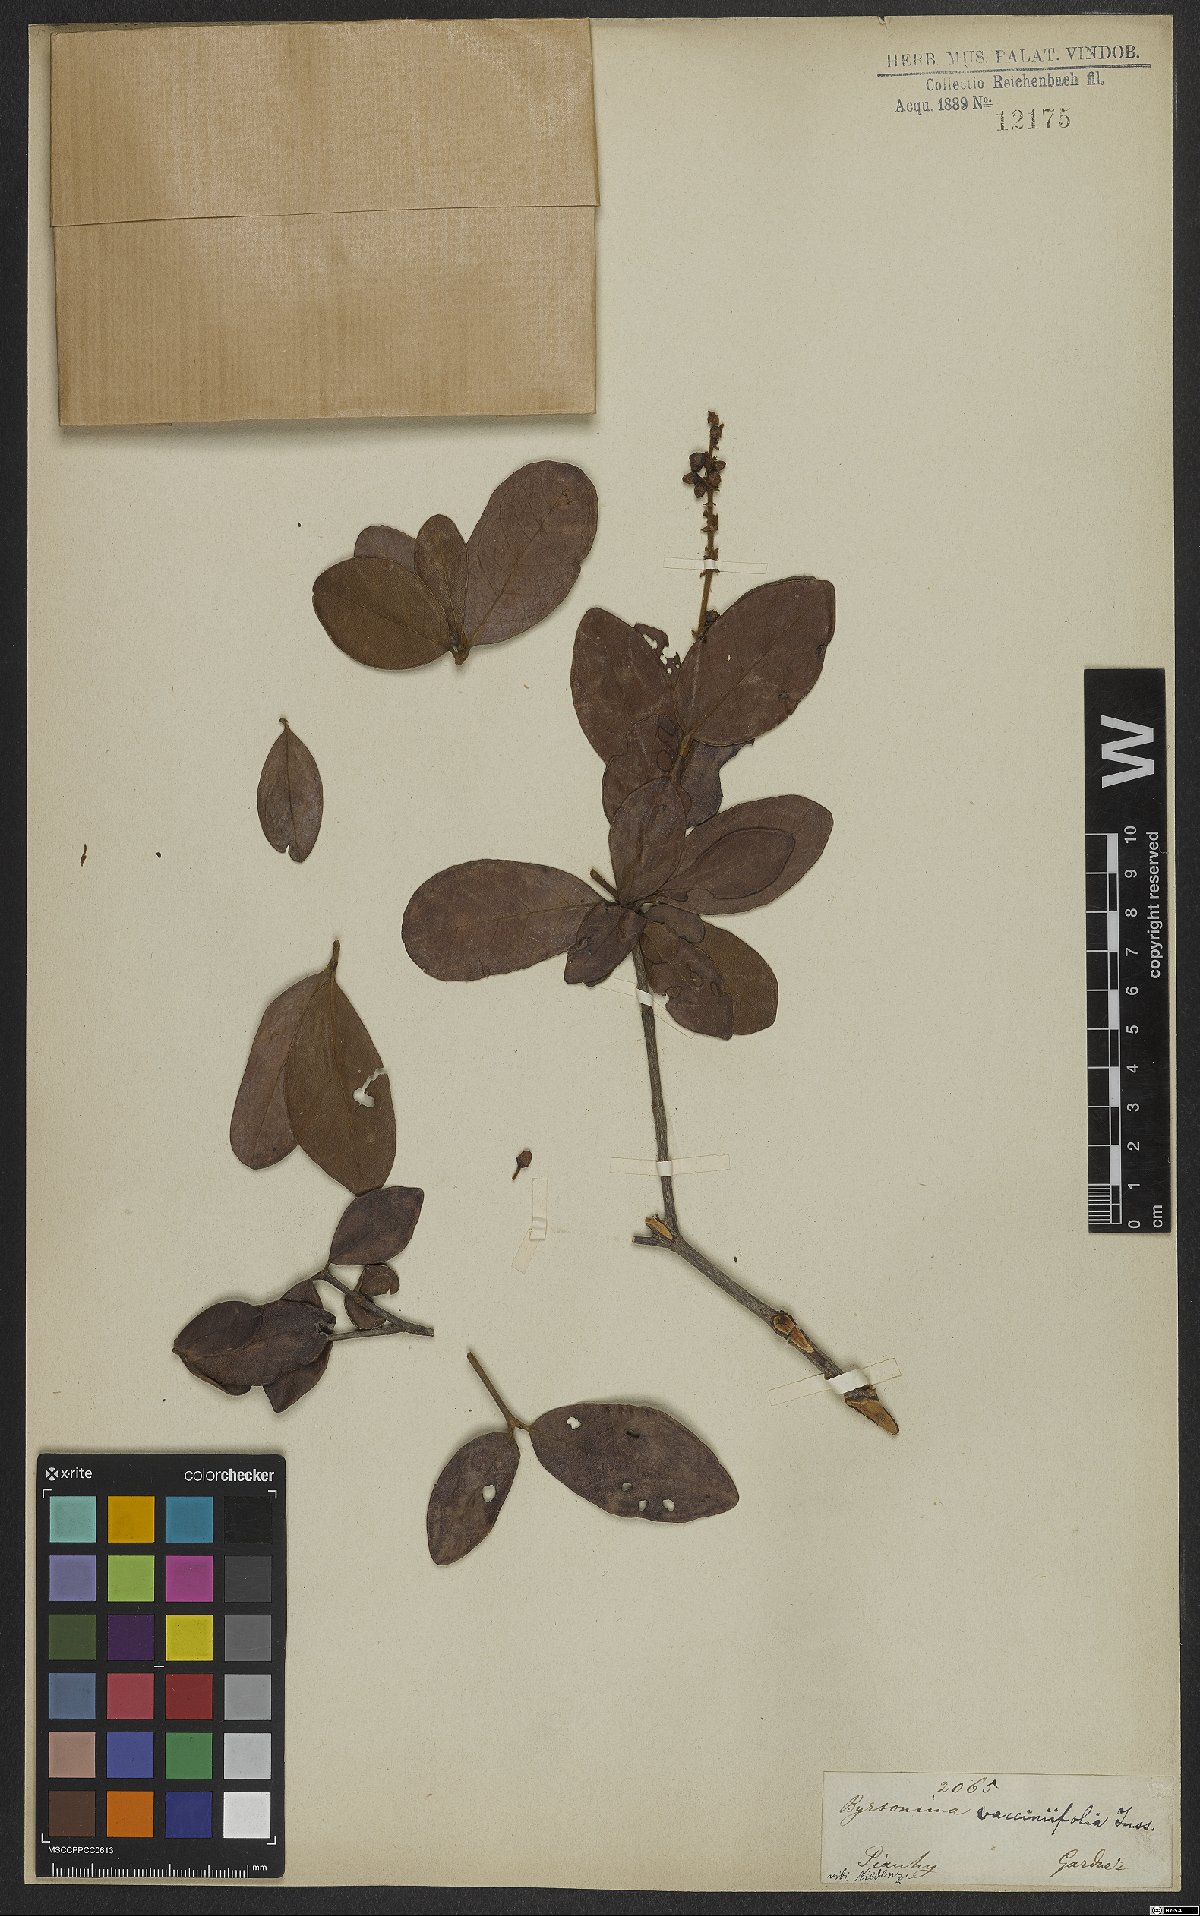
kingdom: Plantae
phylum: Tracheophyta
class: Magnoliopsida
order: Malpighiales
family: Malpighiaceae
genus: Byrsonima
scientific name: Byrsonima vacciniifolia
